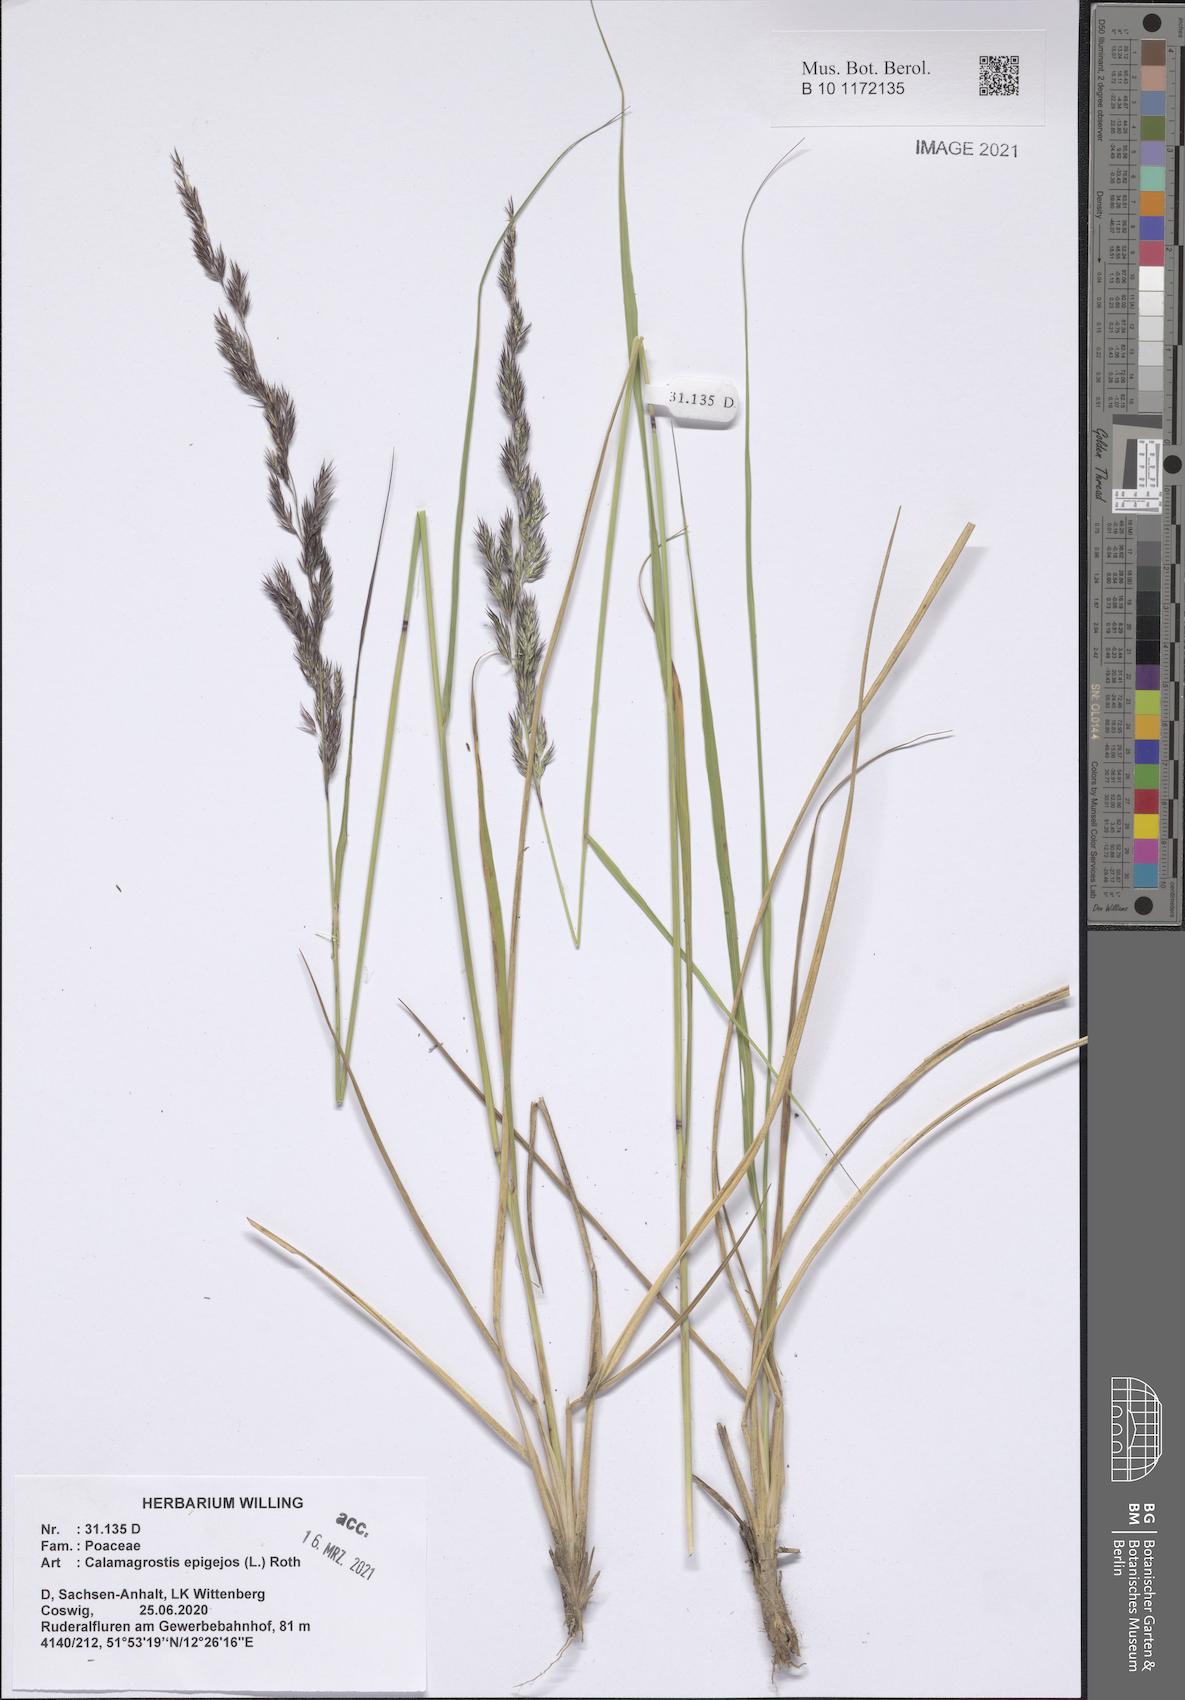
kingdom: Plantae
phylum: Tracheophyta
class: Liliopsida
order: Poales
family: Poaceae
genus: Calamagrostis
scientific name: Calamagrostis epigejos
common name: Wood small-reed
